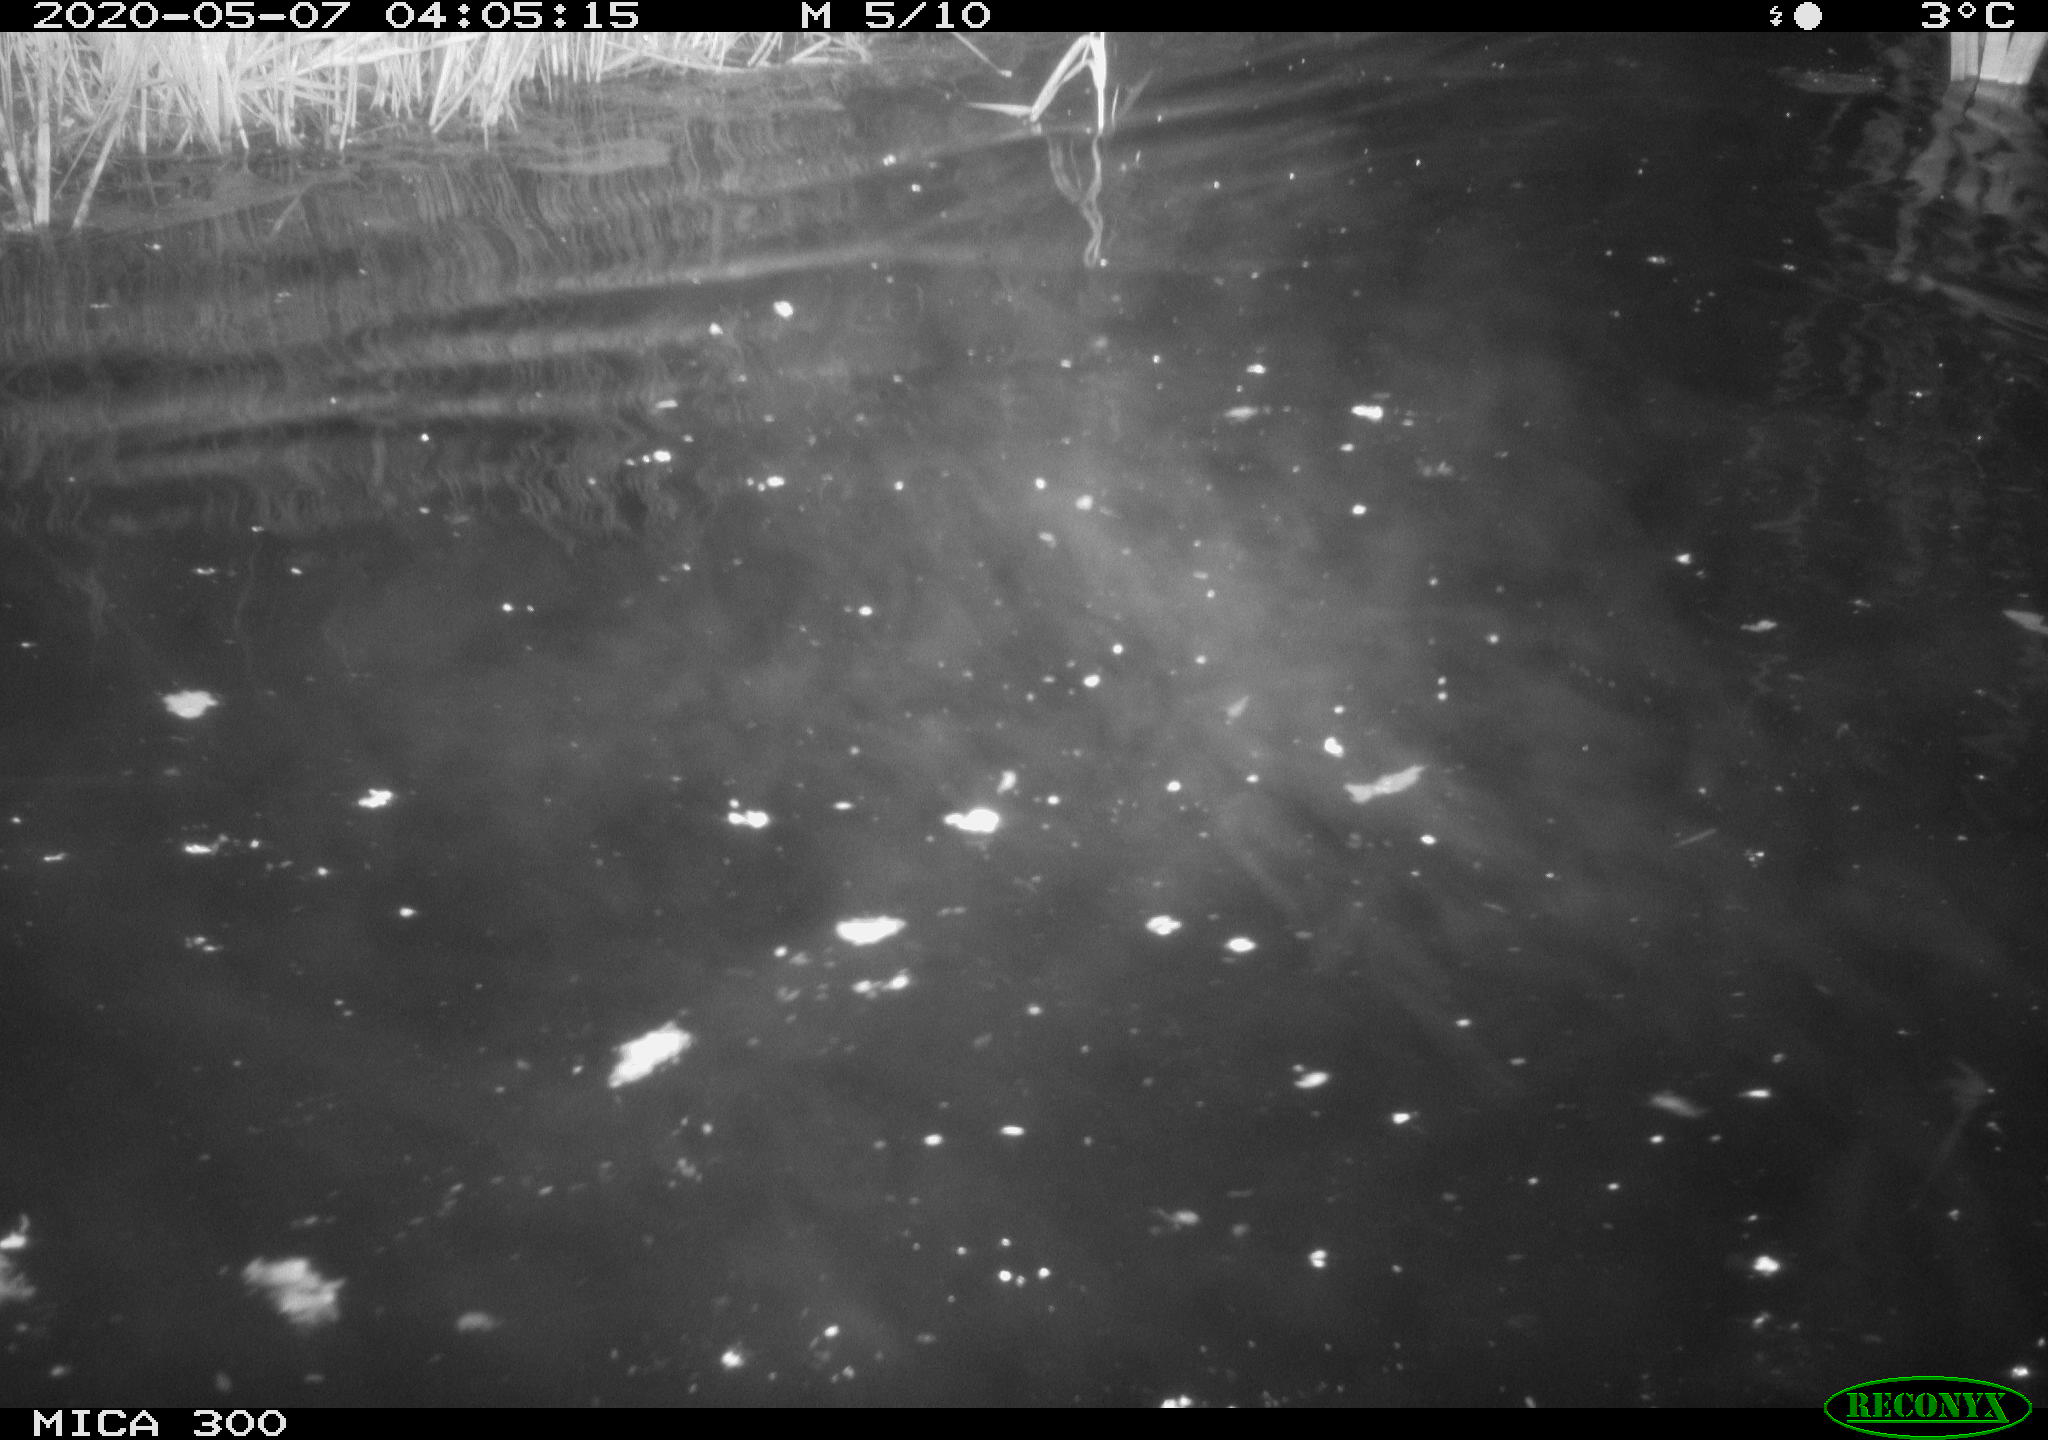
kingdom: Animalia
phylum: Chordata
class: Mammalia
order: Rodentia
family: Castoridae
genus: Castor
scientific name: Castor fiber
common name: Eurasian beaver
